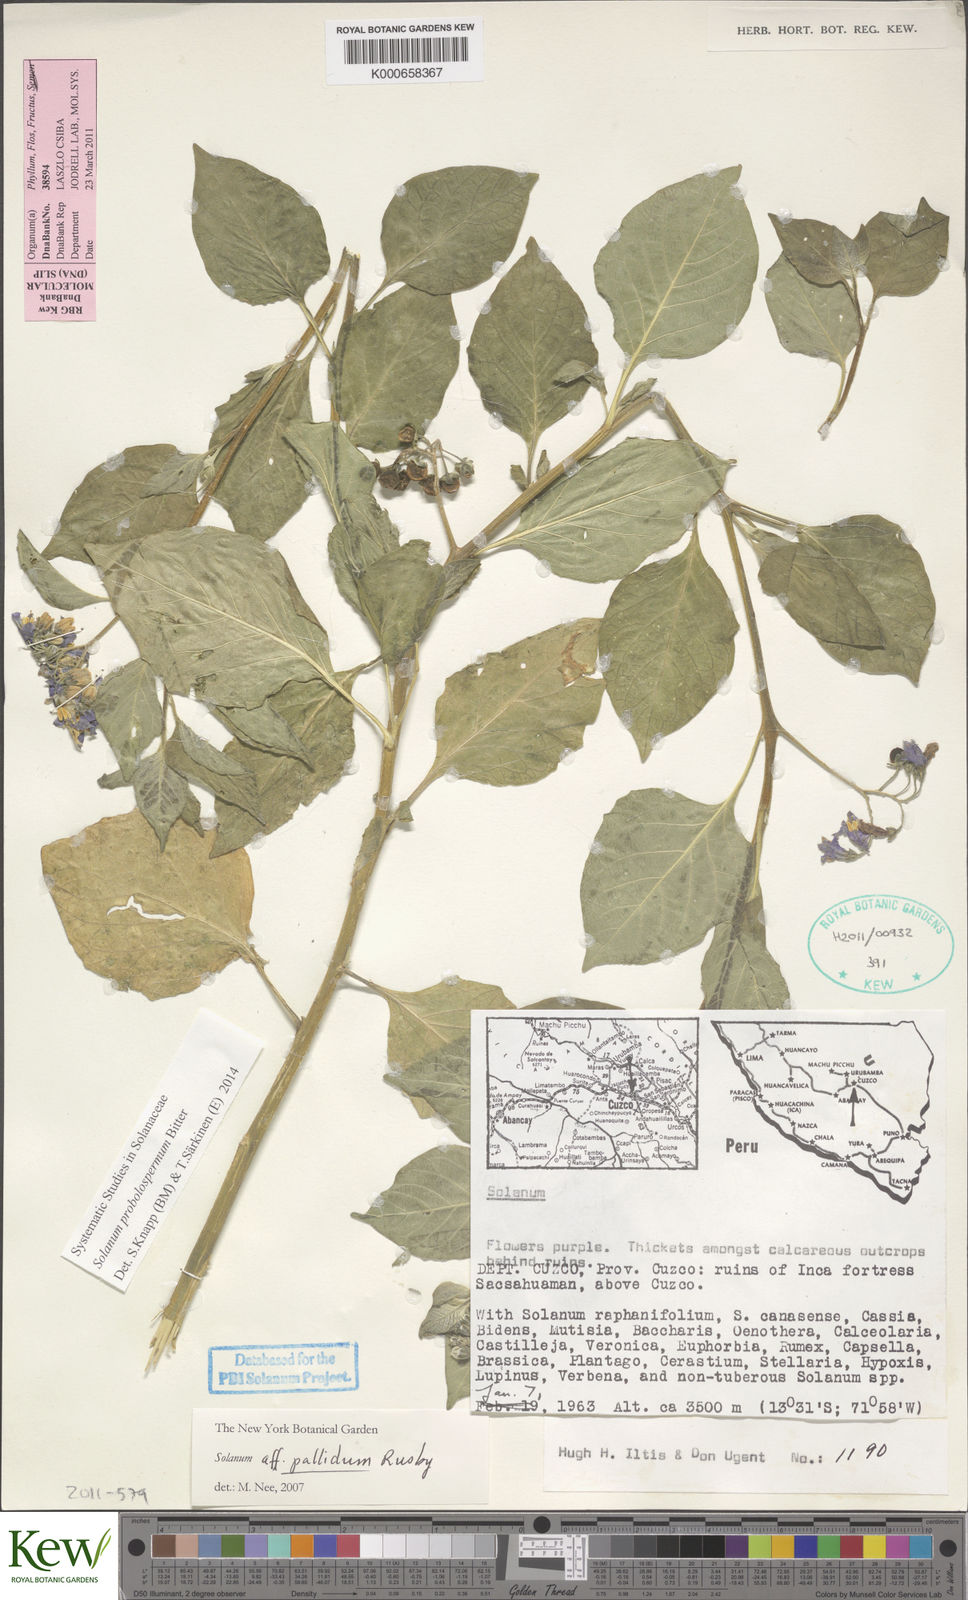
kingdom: Plantae
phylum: Tracheophyta
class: Magnoliopsida
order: Solanales
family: Solanaceae
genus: Solanum
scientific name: Solanum probolospermum
